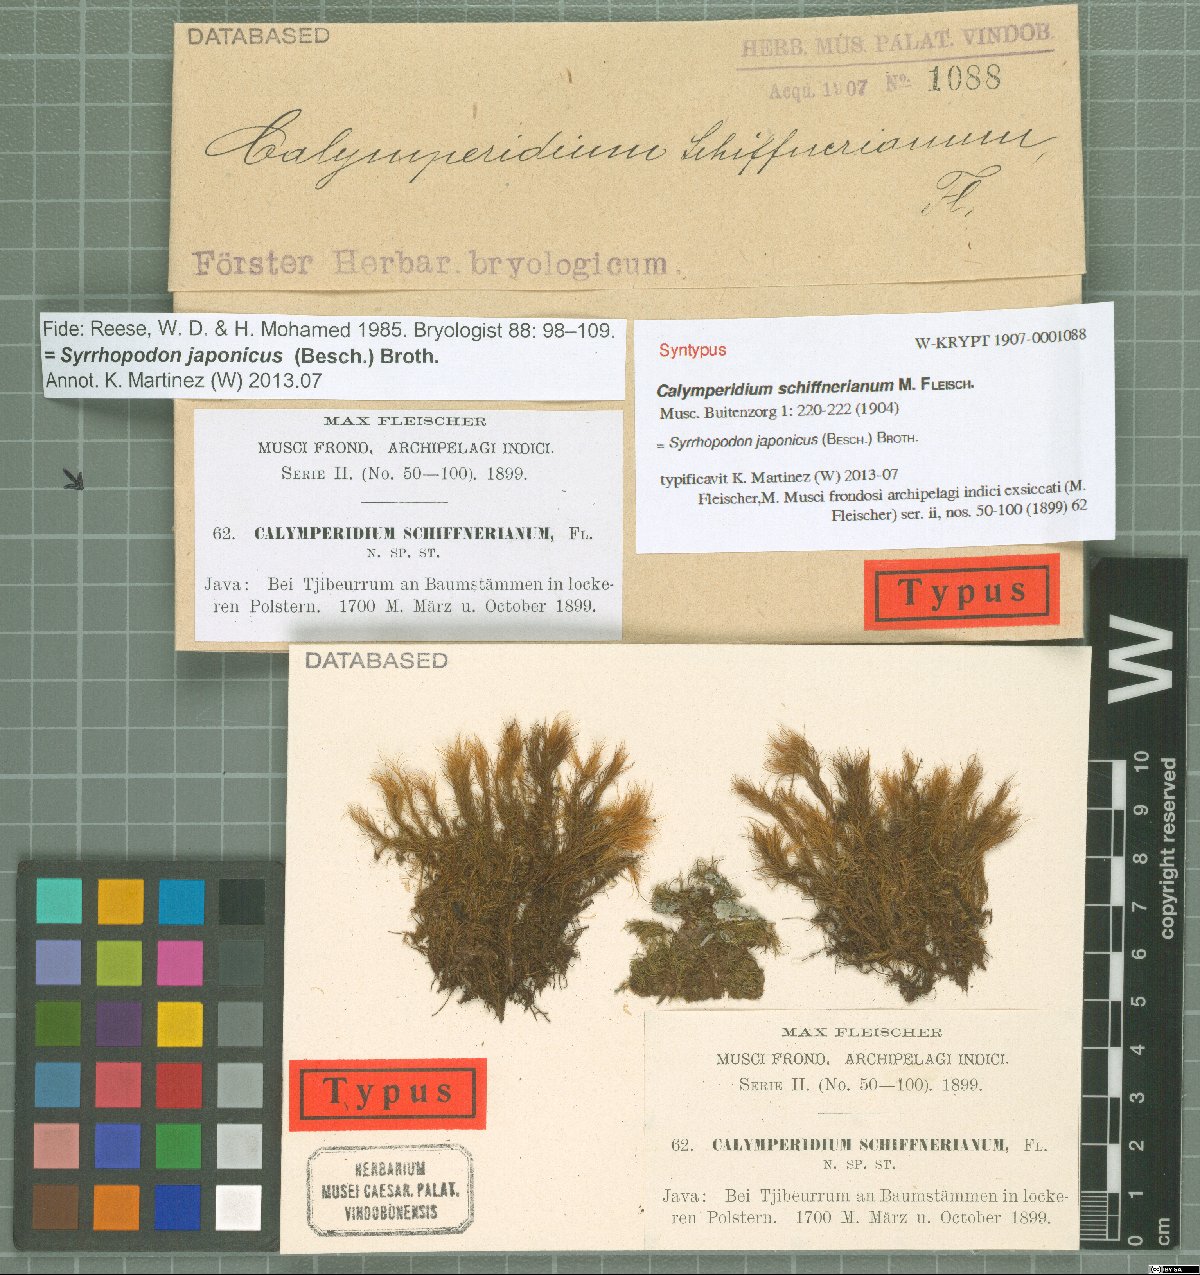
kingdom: Plantae
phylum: Bryophyta
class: Bryopsida
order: Dicranales
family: Calymperaceae
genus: Syrrhopodon
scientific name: Syrrhopodon schiffnerianus
